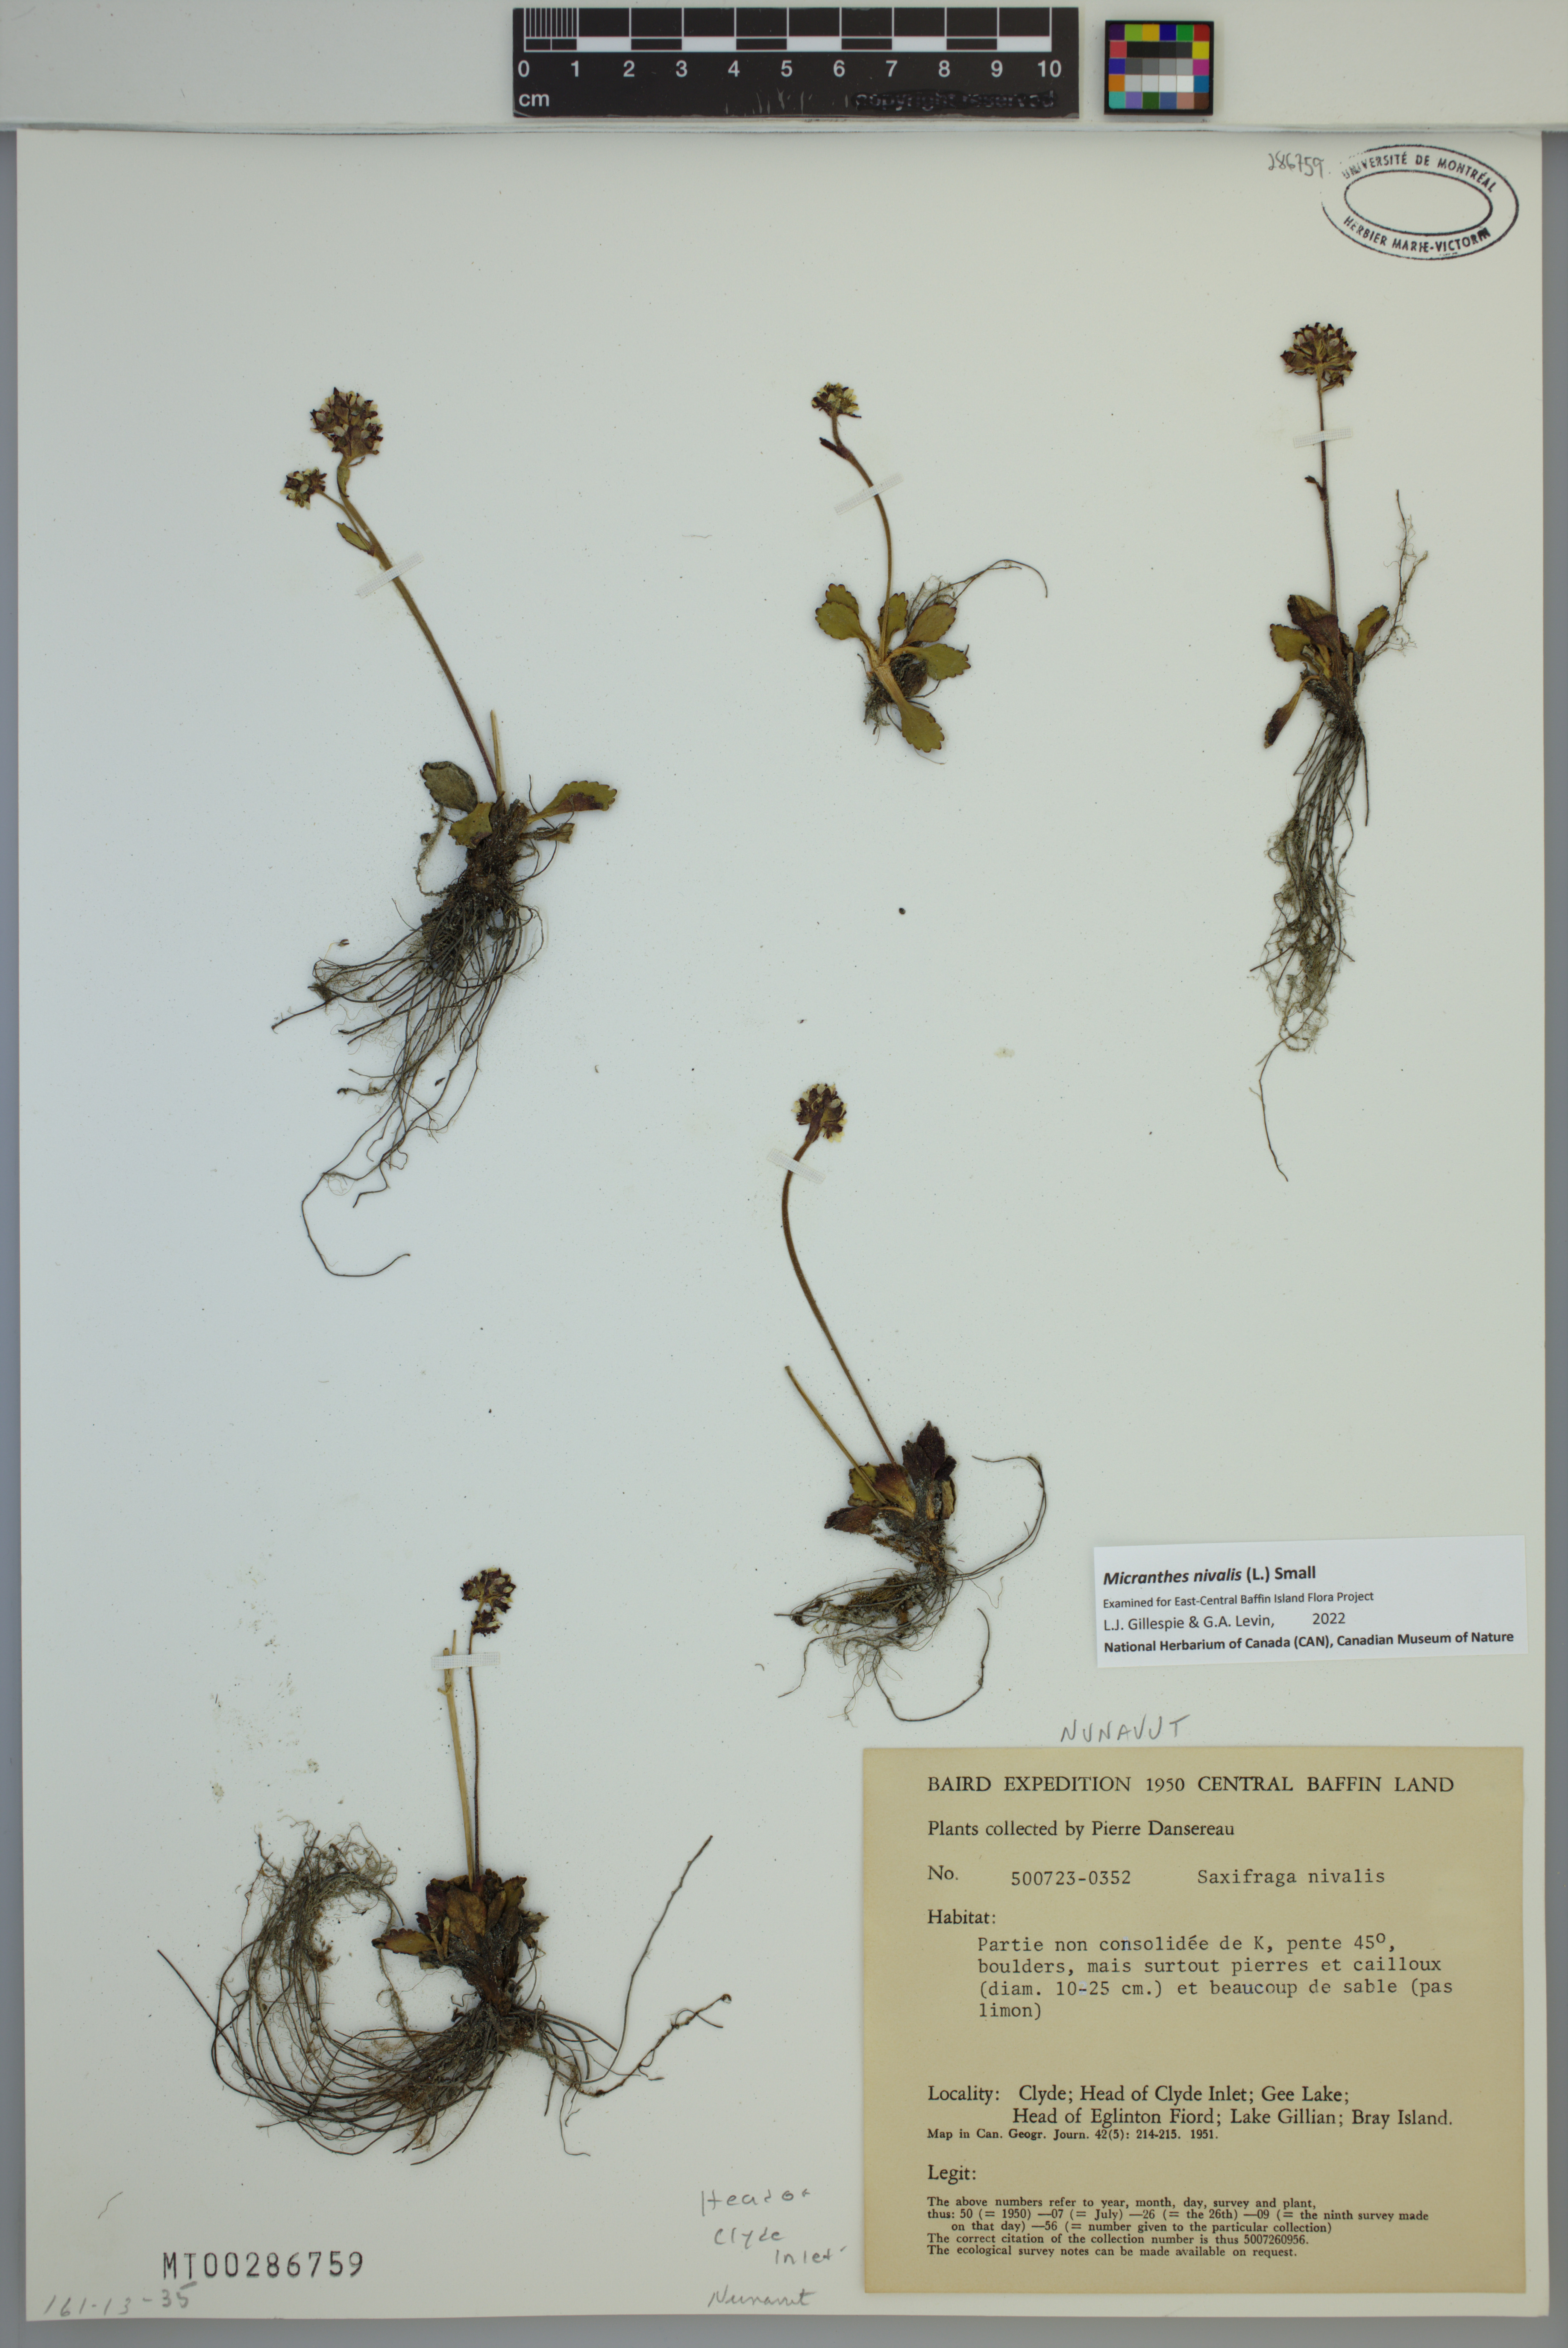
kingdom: Plantae
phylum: Tracheophyta
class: Magnoliopsida
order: Saxifragales
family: Saxifragaceae
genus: Micranthes
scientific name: Micranthes nivalis
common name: Alpine saxifrage
